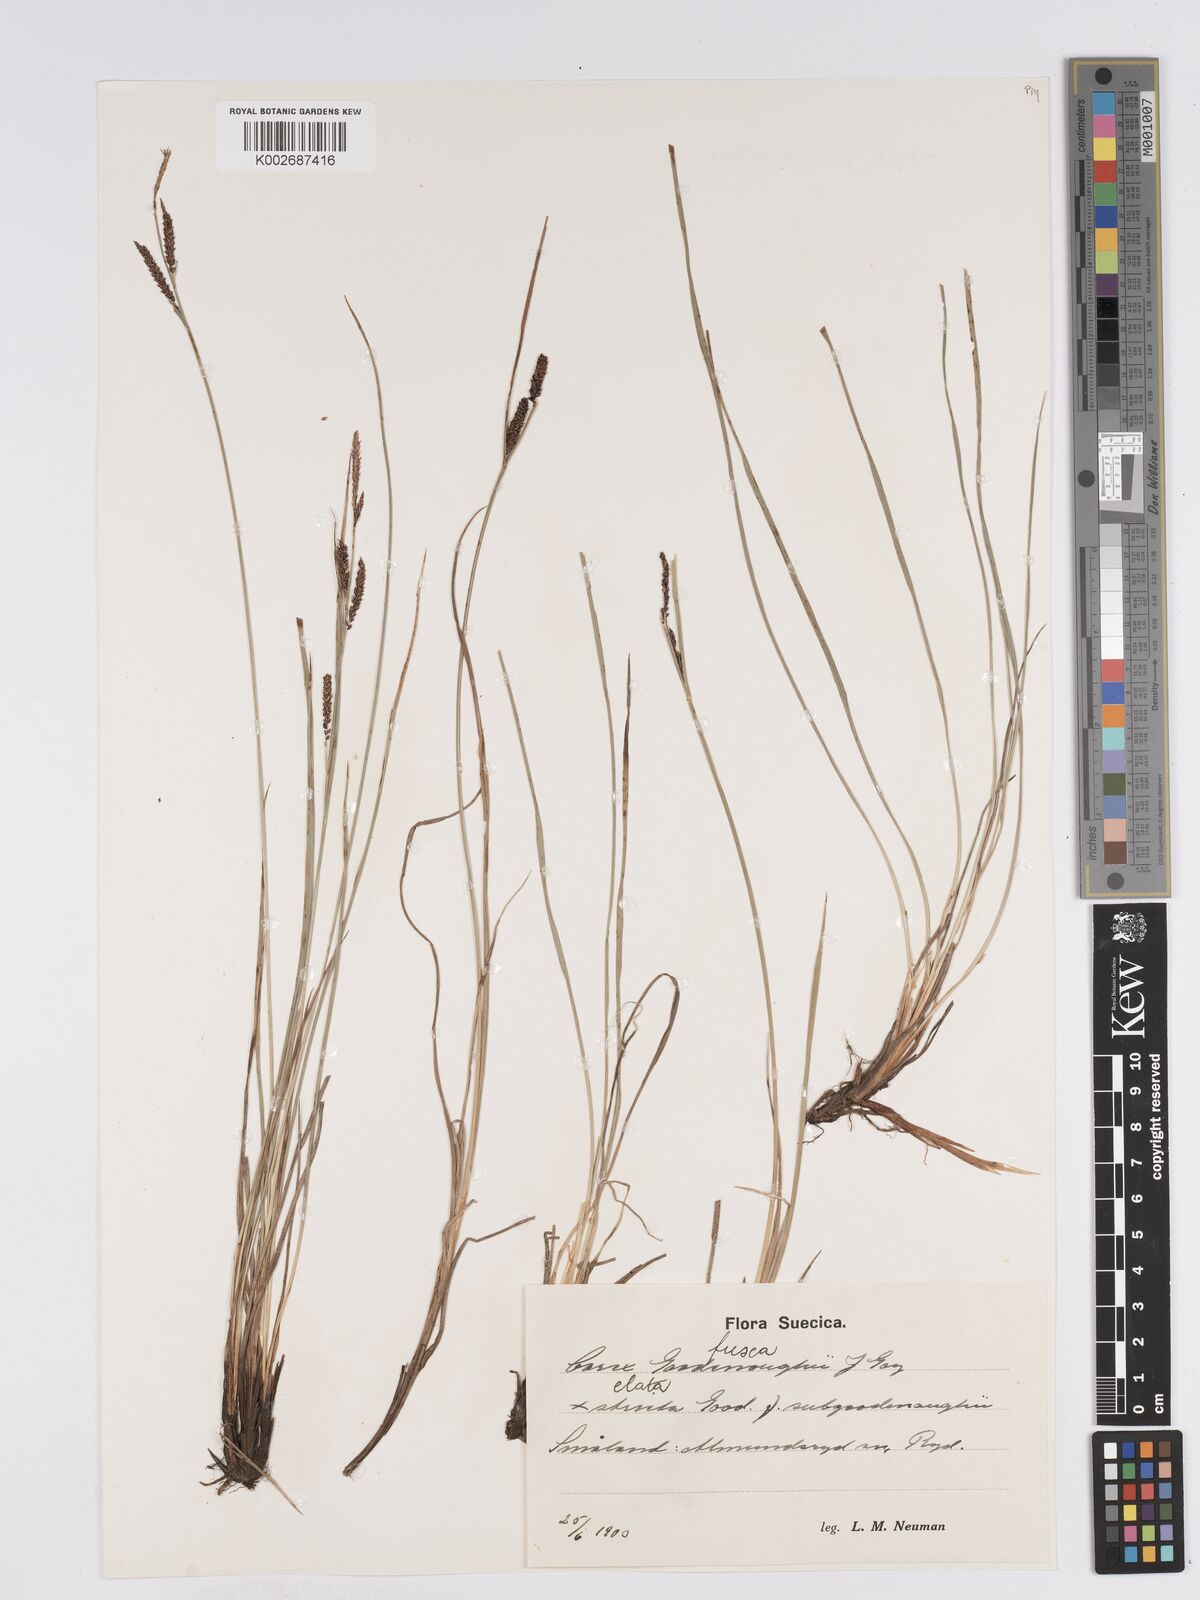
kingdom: Plantae
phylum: Tracheophyta
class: Liliopsida
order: Poales
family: Cyperaceae
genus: Carex
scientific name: Carex nigra
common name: Common sedge
